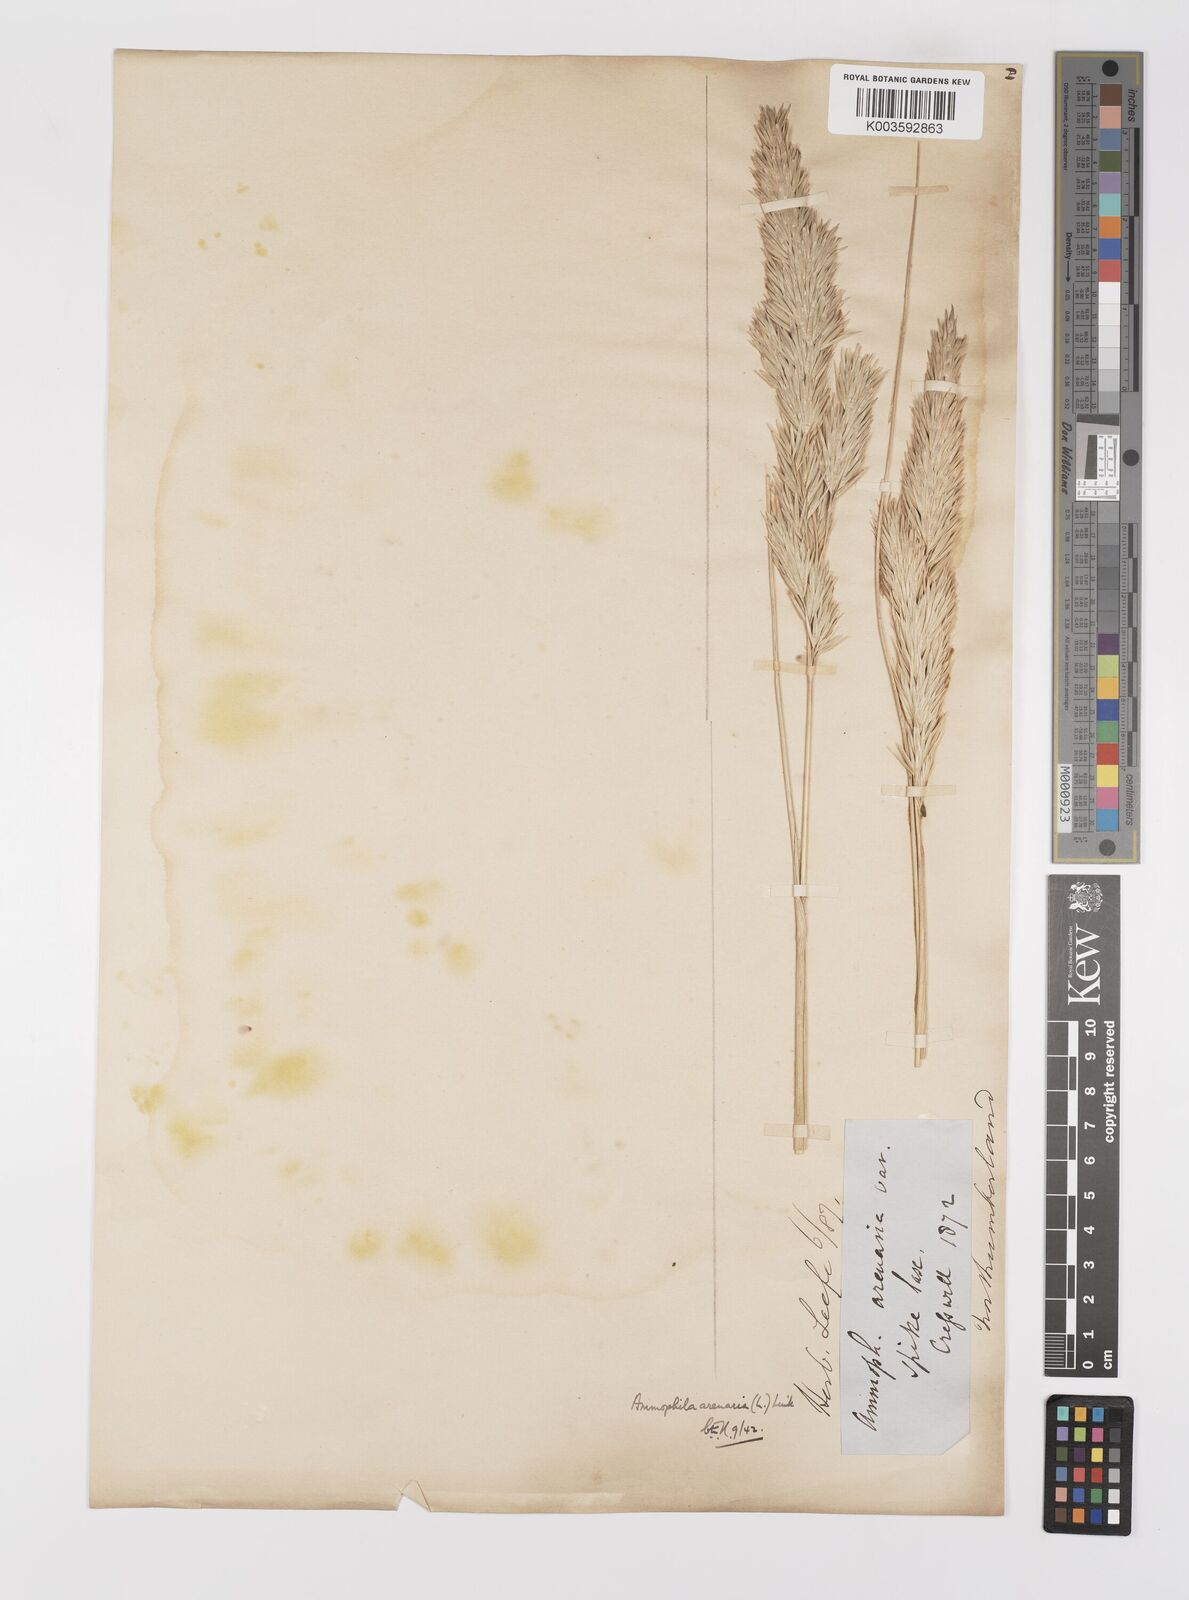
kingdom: Plantae
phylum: Tracheophyta
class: Liliopsida
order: Poales
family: Poaceae
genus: Calamagrostis
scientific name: Calamagrostis arenaria
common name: European beachgrass
